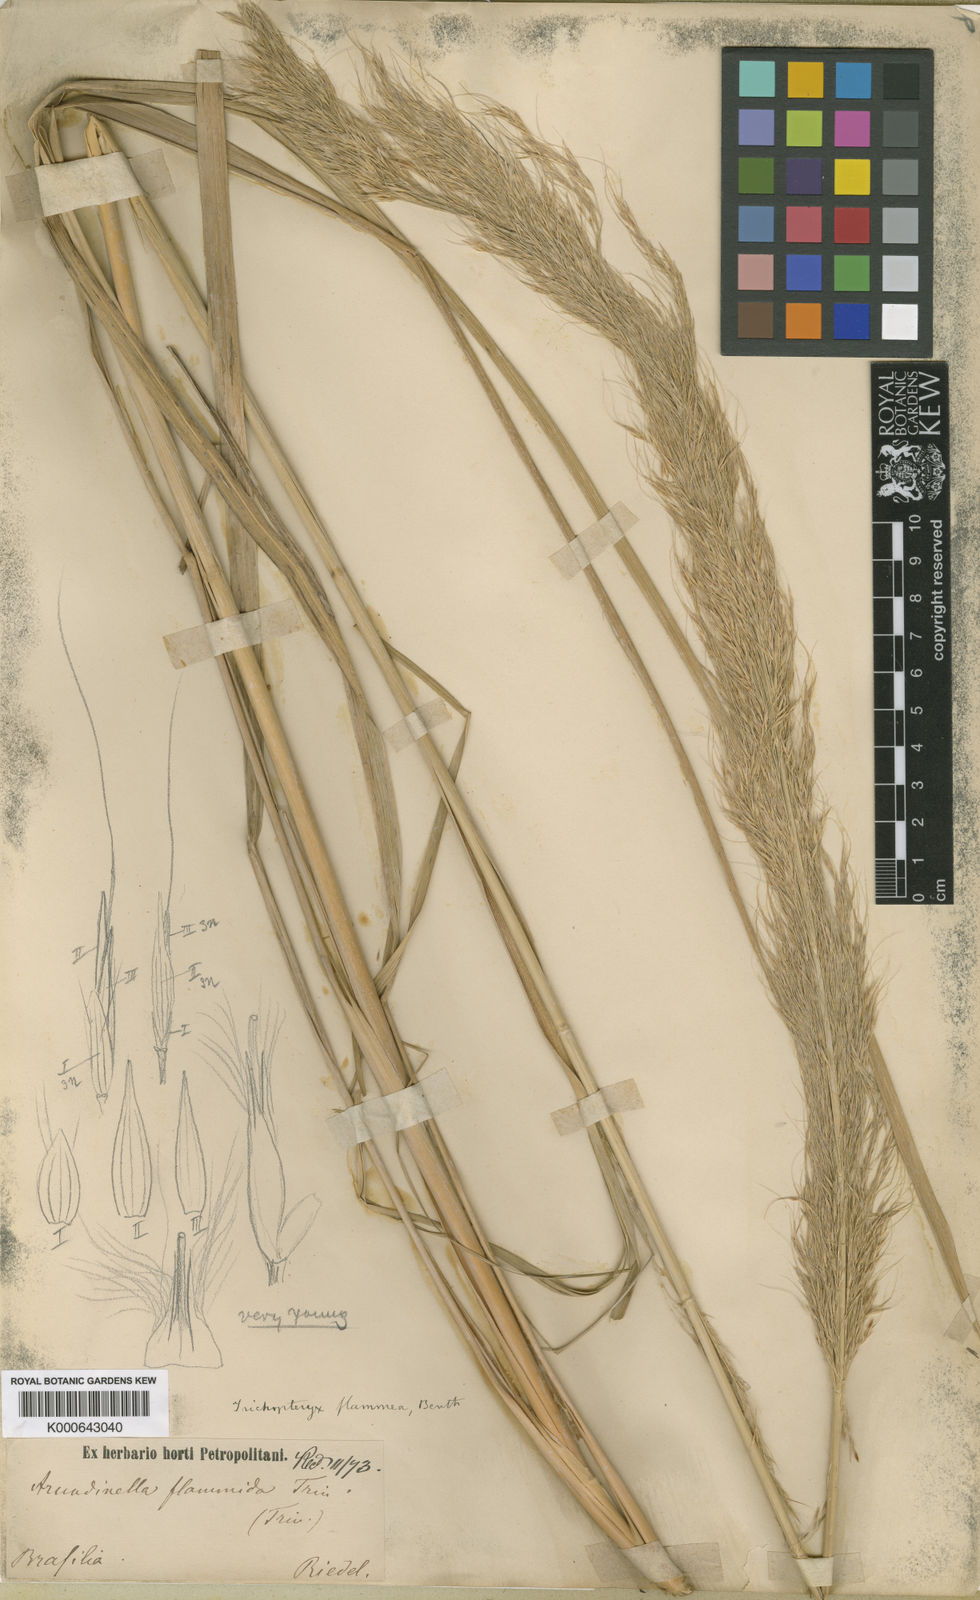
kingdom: Plantae
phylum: Tracheophyta
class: Liliopsida
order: Poales
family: Poaceae
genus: Loudetia
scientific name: Loudetia flammida
